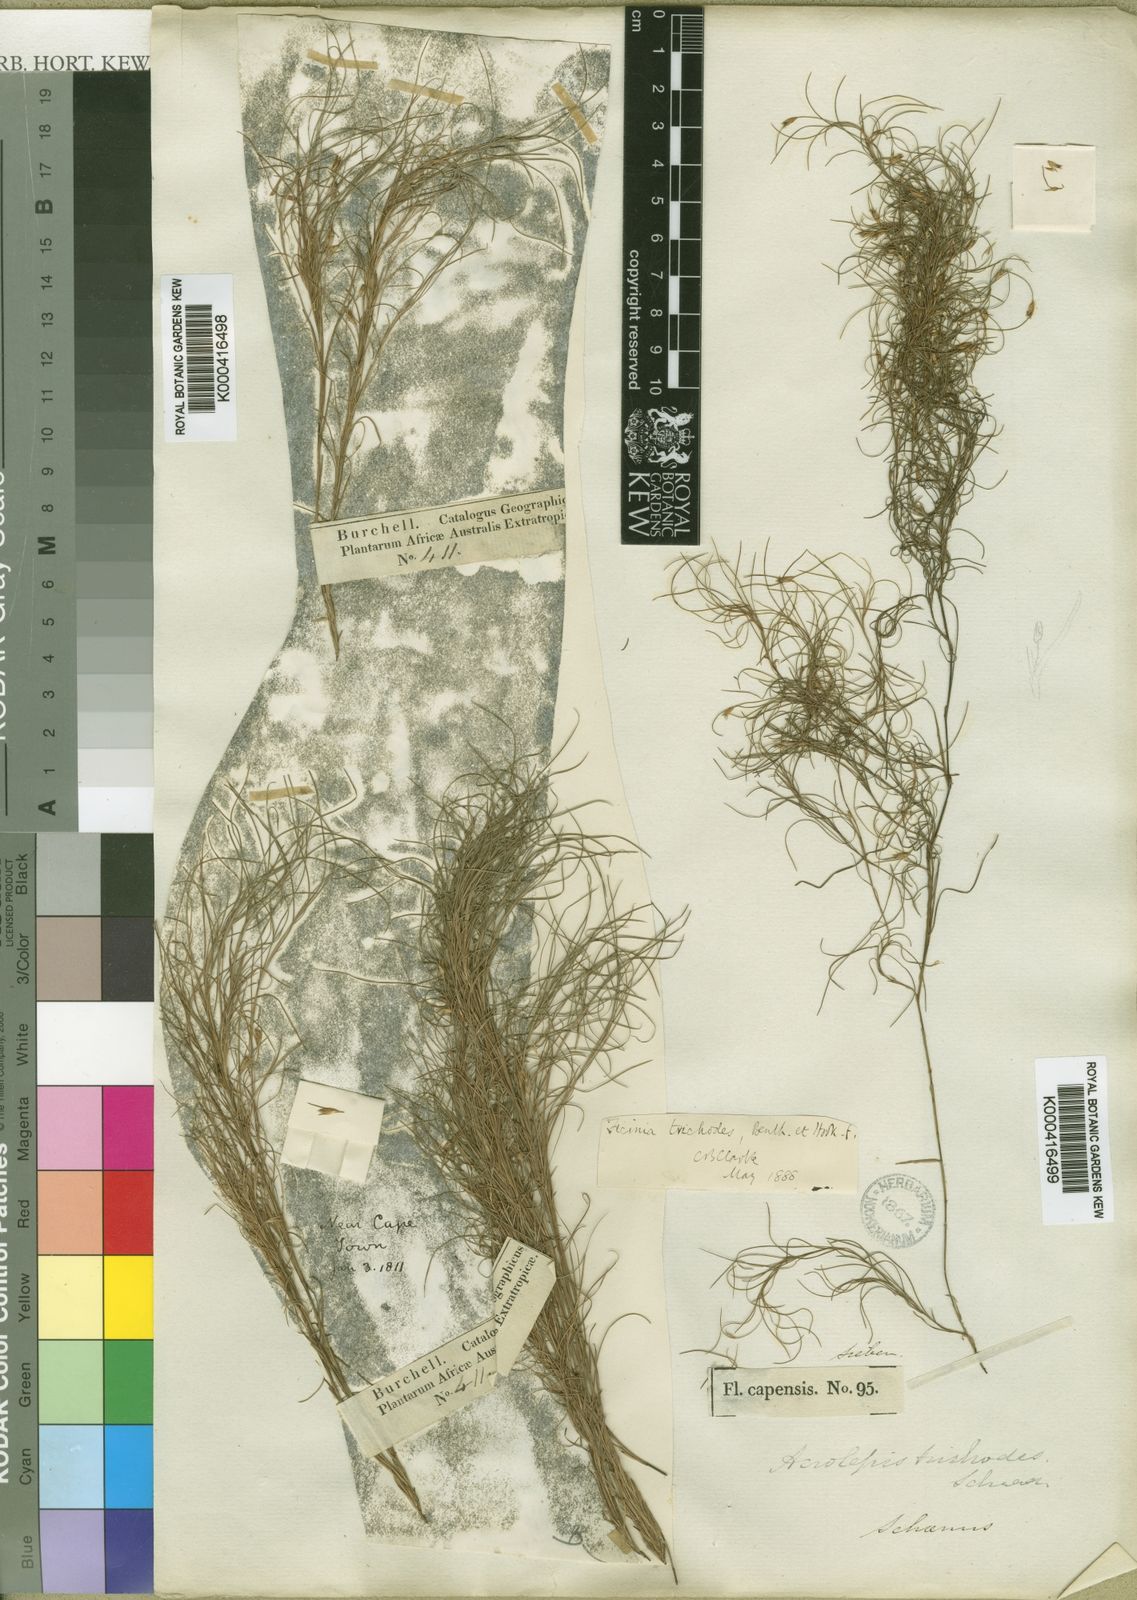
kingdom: Plantae
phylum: Tracheophyta
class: Liliopsida
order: Poales
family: Cyperaceae
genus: Ficinia
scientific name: Ficinia
